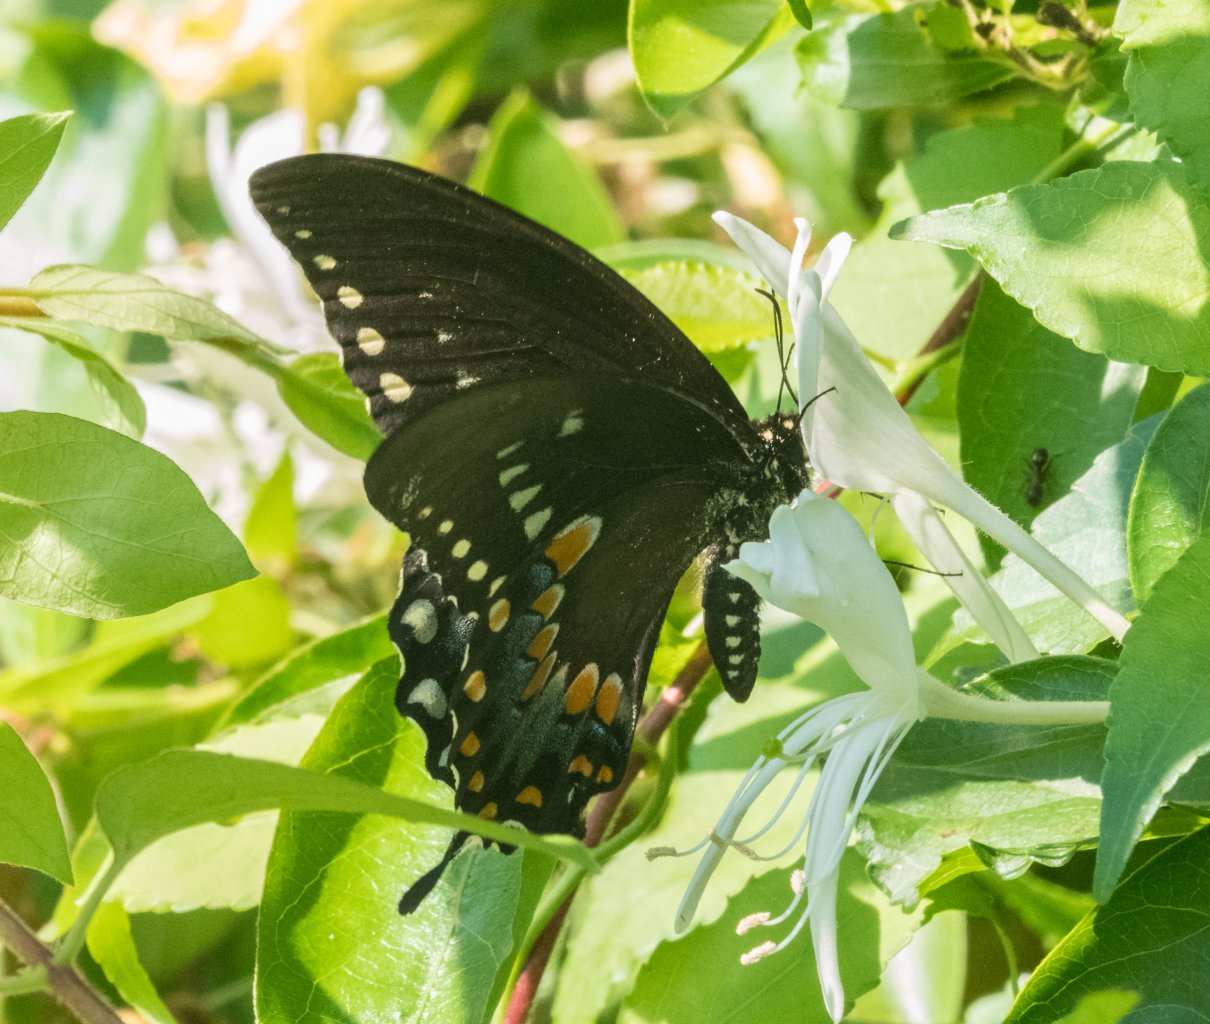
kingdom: Animalia
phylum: Arthropoda
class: Insecta
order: Lepidoptera
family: Papilionidae
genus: Pterourus
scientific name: Pterourus troilus
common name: Spicebush Swallowtail
